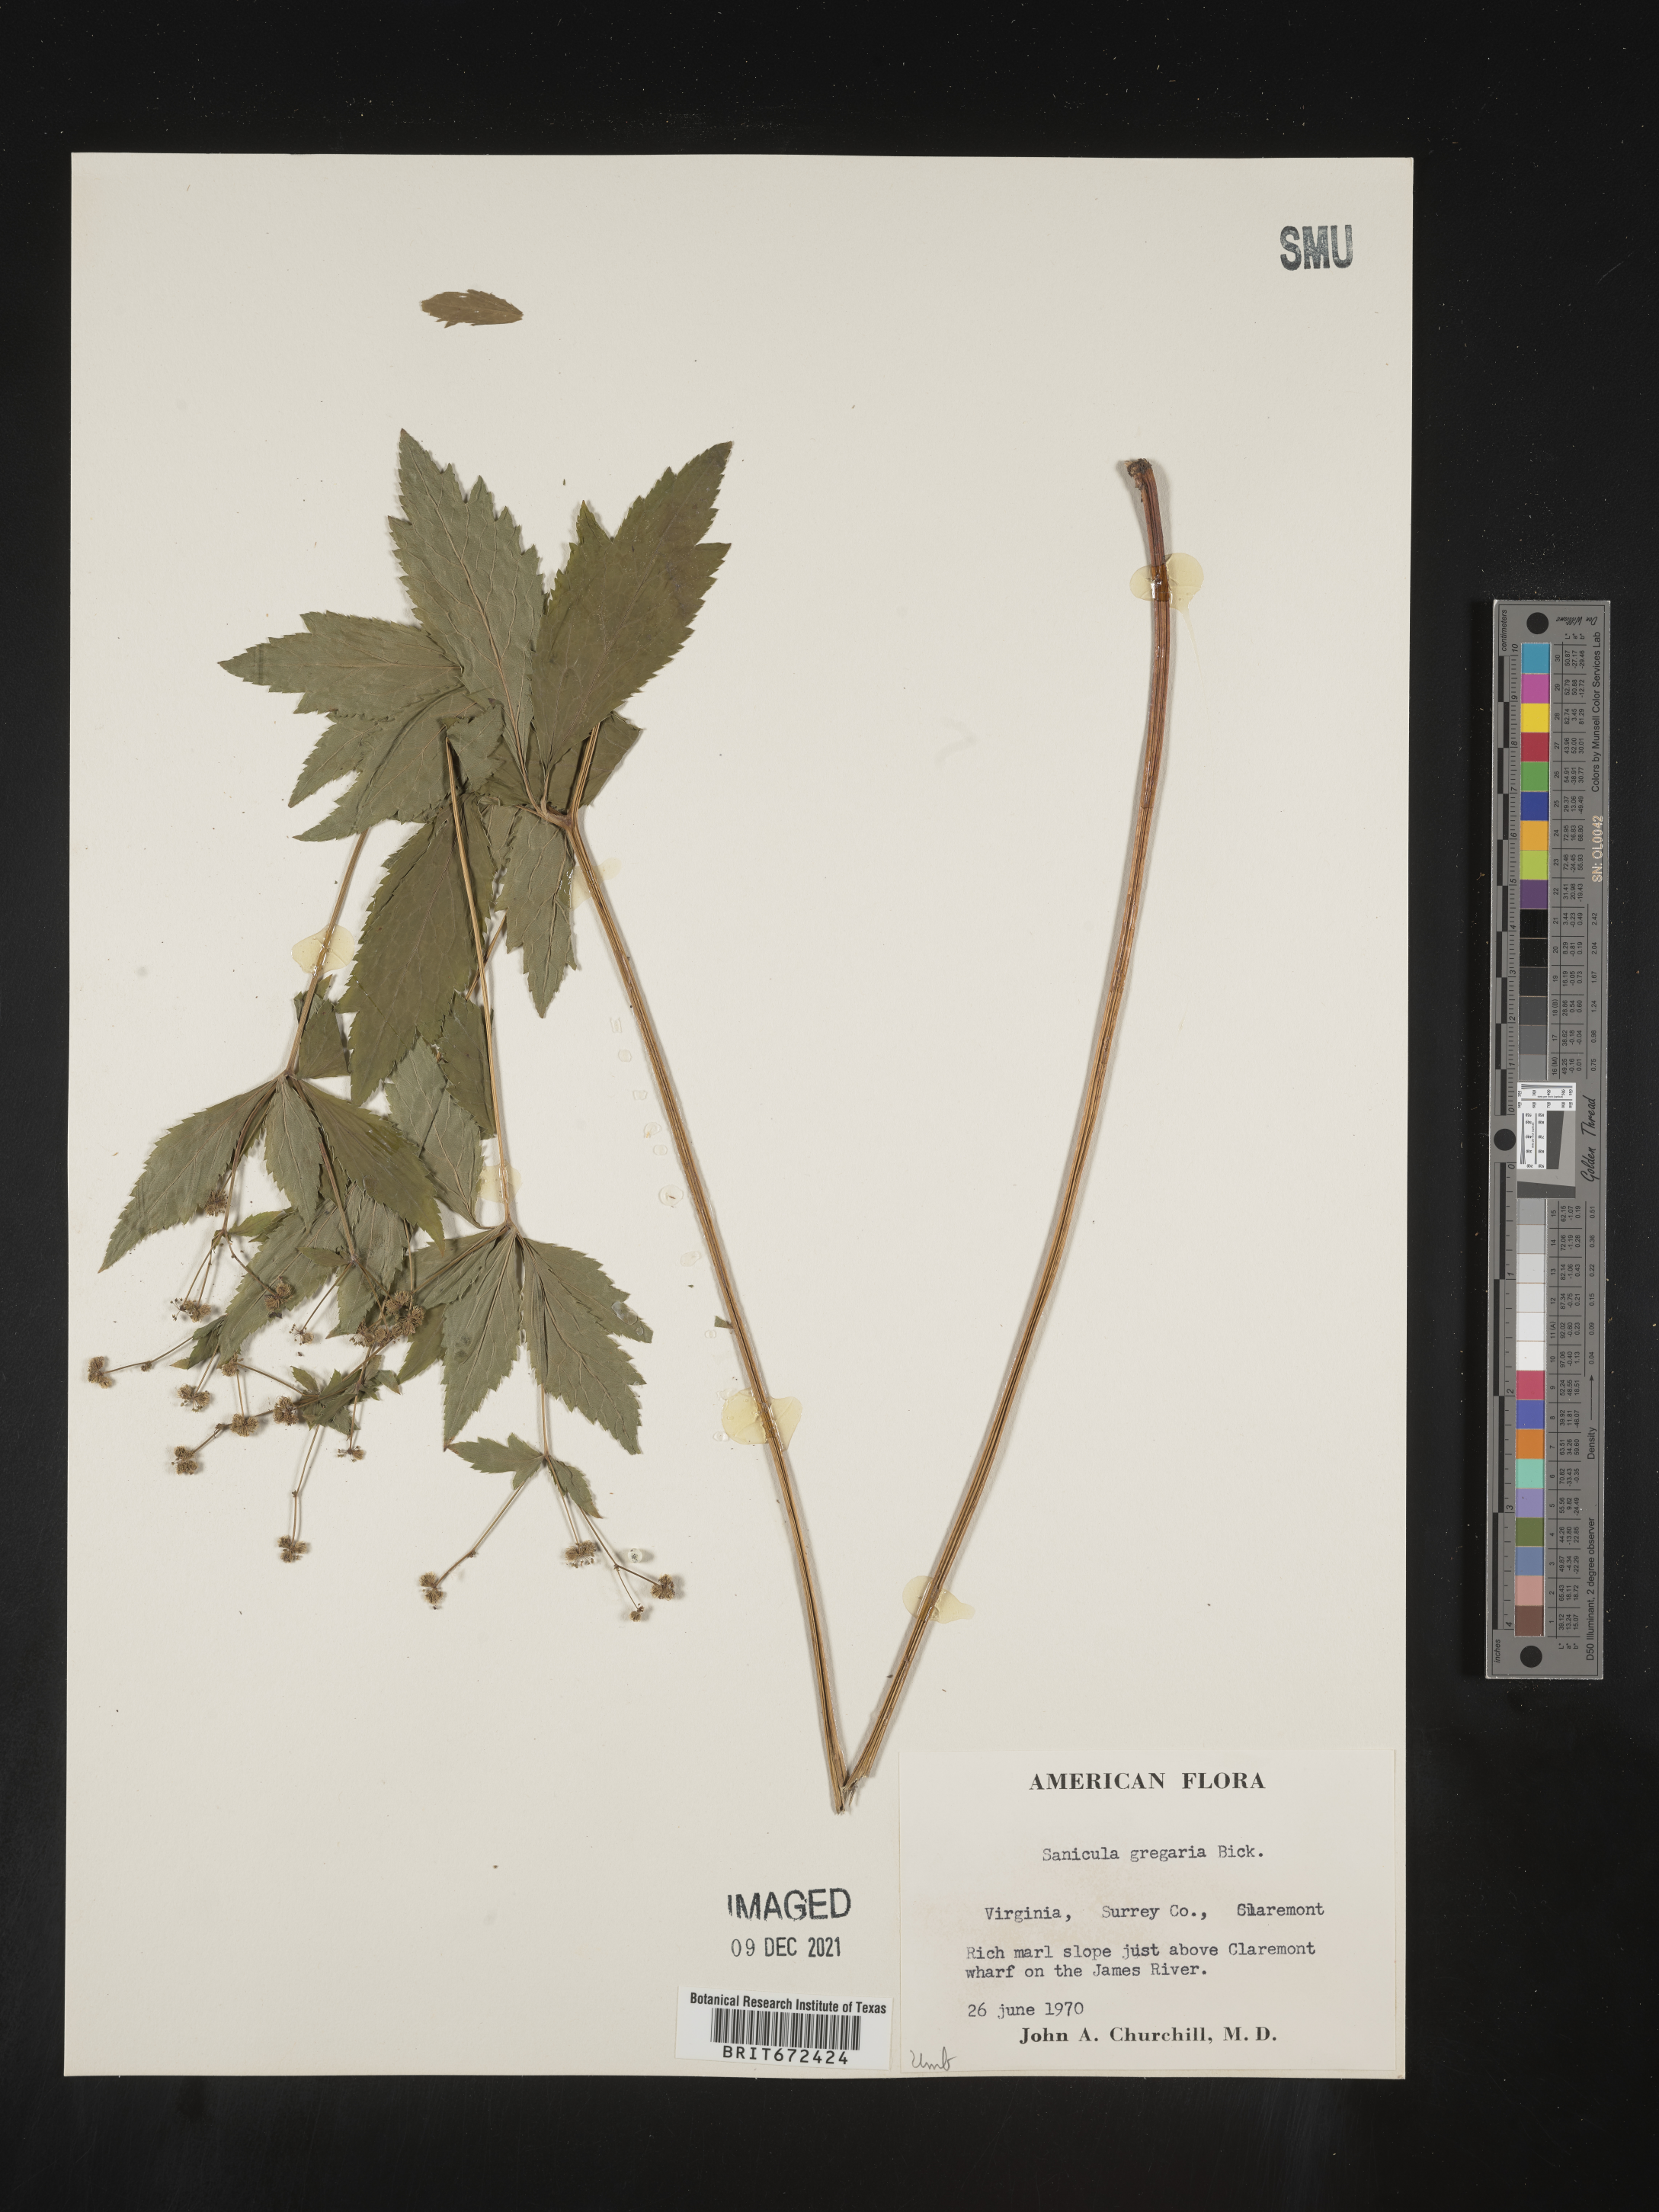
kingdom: Plantae
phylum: Tracheophyta
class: Magnoliopsida
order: Apiales
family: Apiaceae
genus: Sanicula
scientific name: Sanicula odorata
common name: Cluster sanicle
